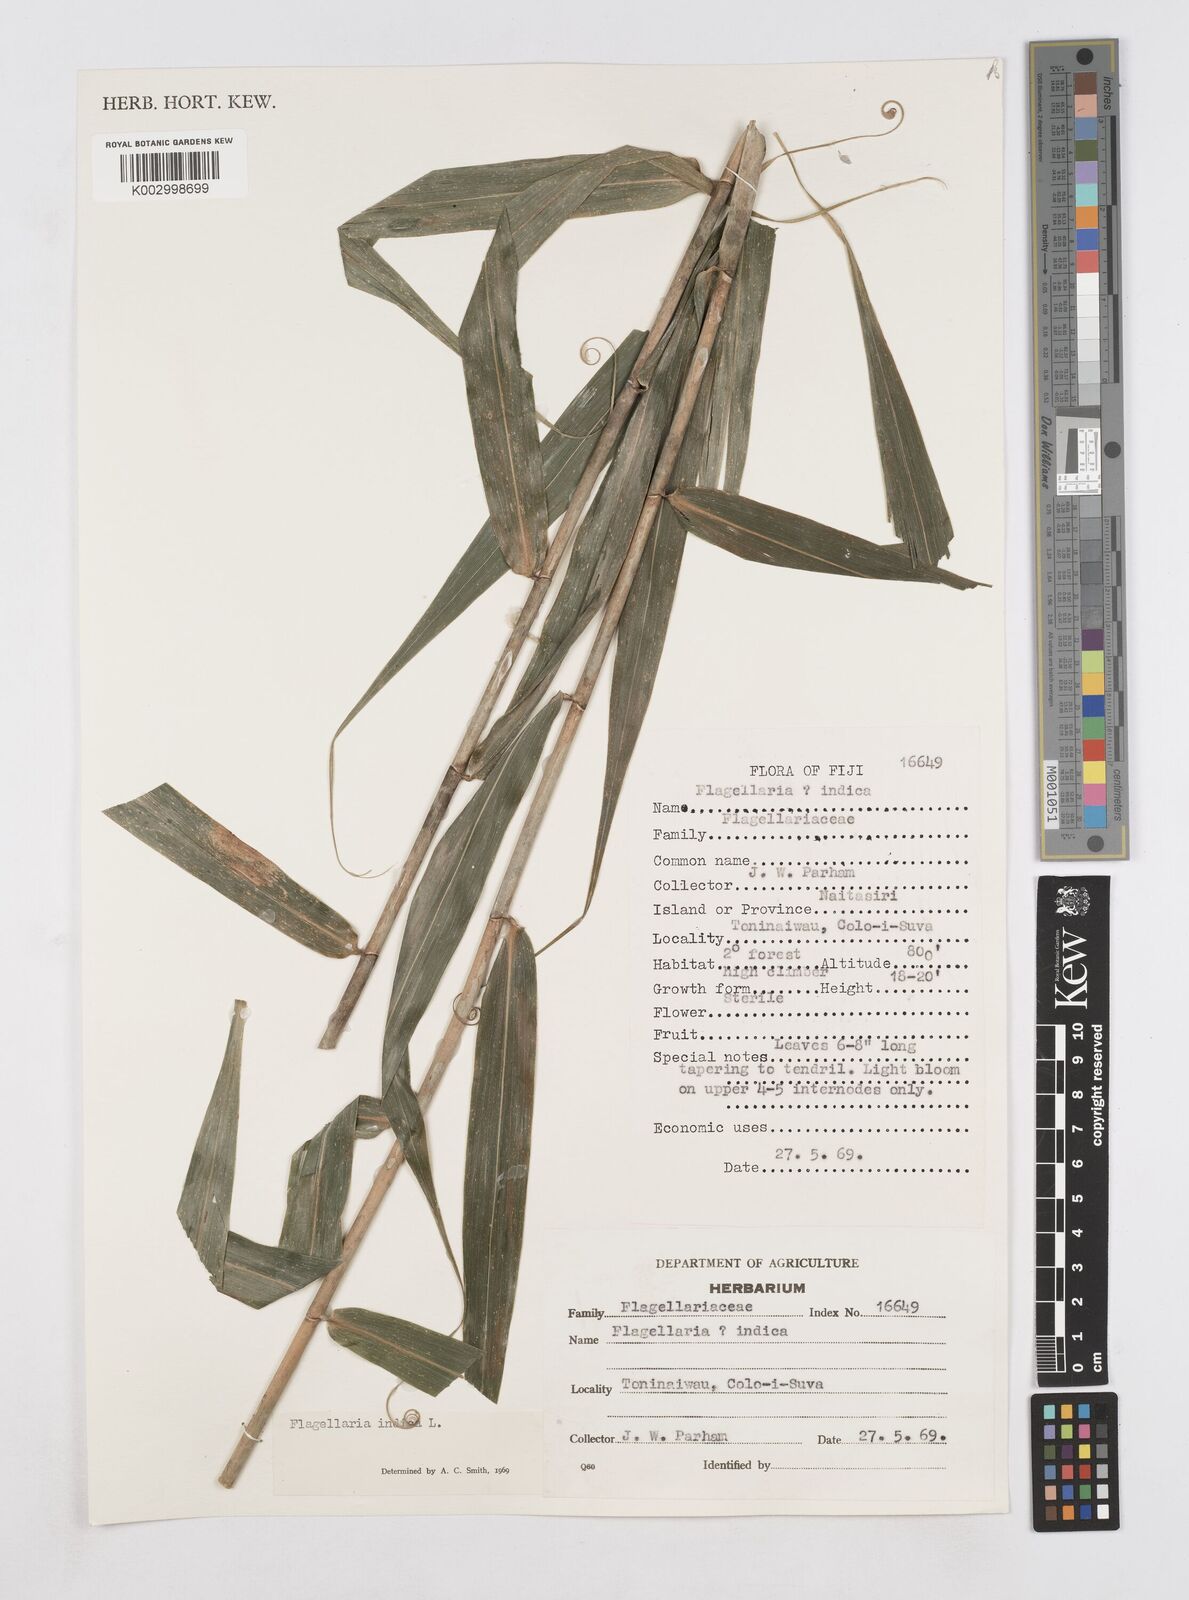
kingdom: Plantae
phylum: Tracheophyta
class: Liliopsida
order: Poales
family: Flagellariaceae
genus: Flagellaria
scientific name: Flagellaria indica
